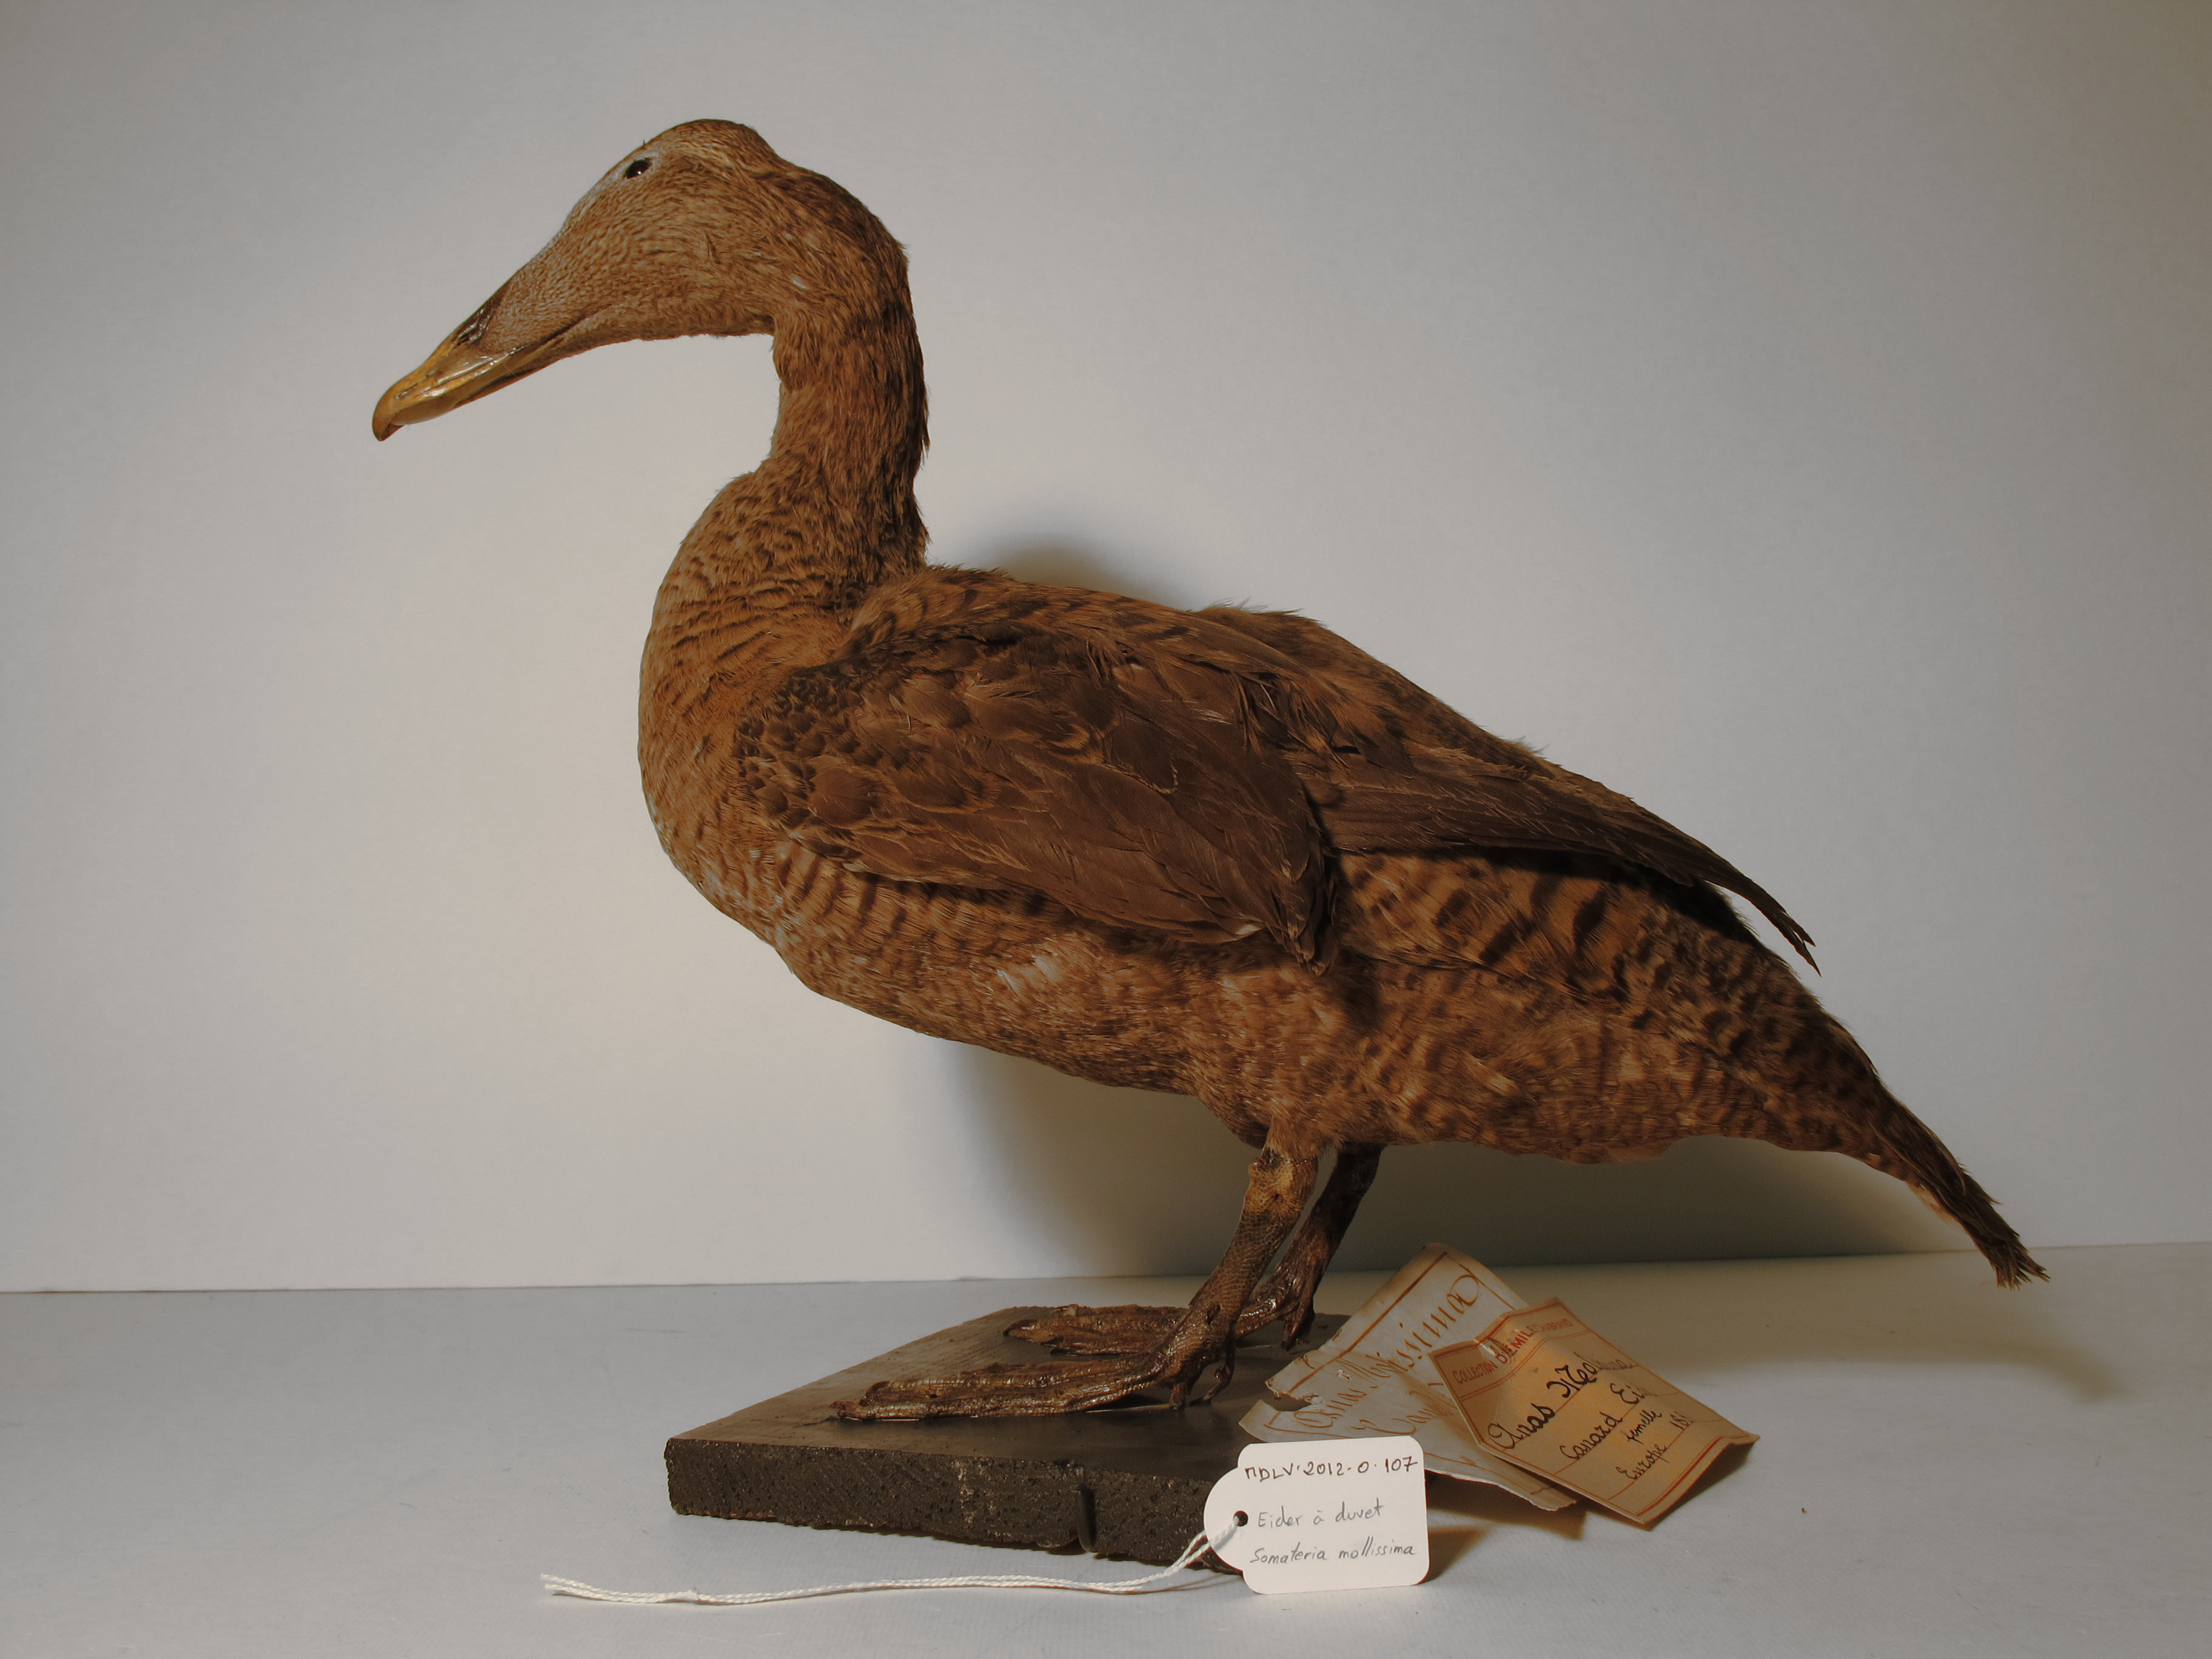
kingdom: Animalia
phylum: Chordata
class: Aves
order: Anseriformes
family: Anatidae
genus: Somateria
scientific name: Somateria mollissima
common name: Common Eider
